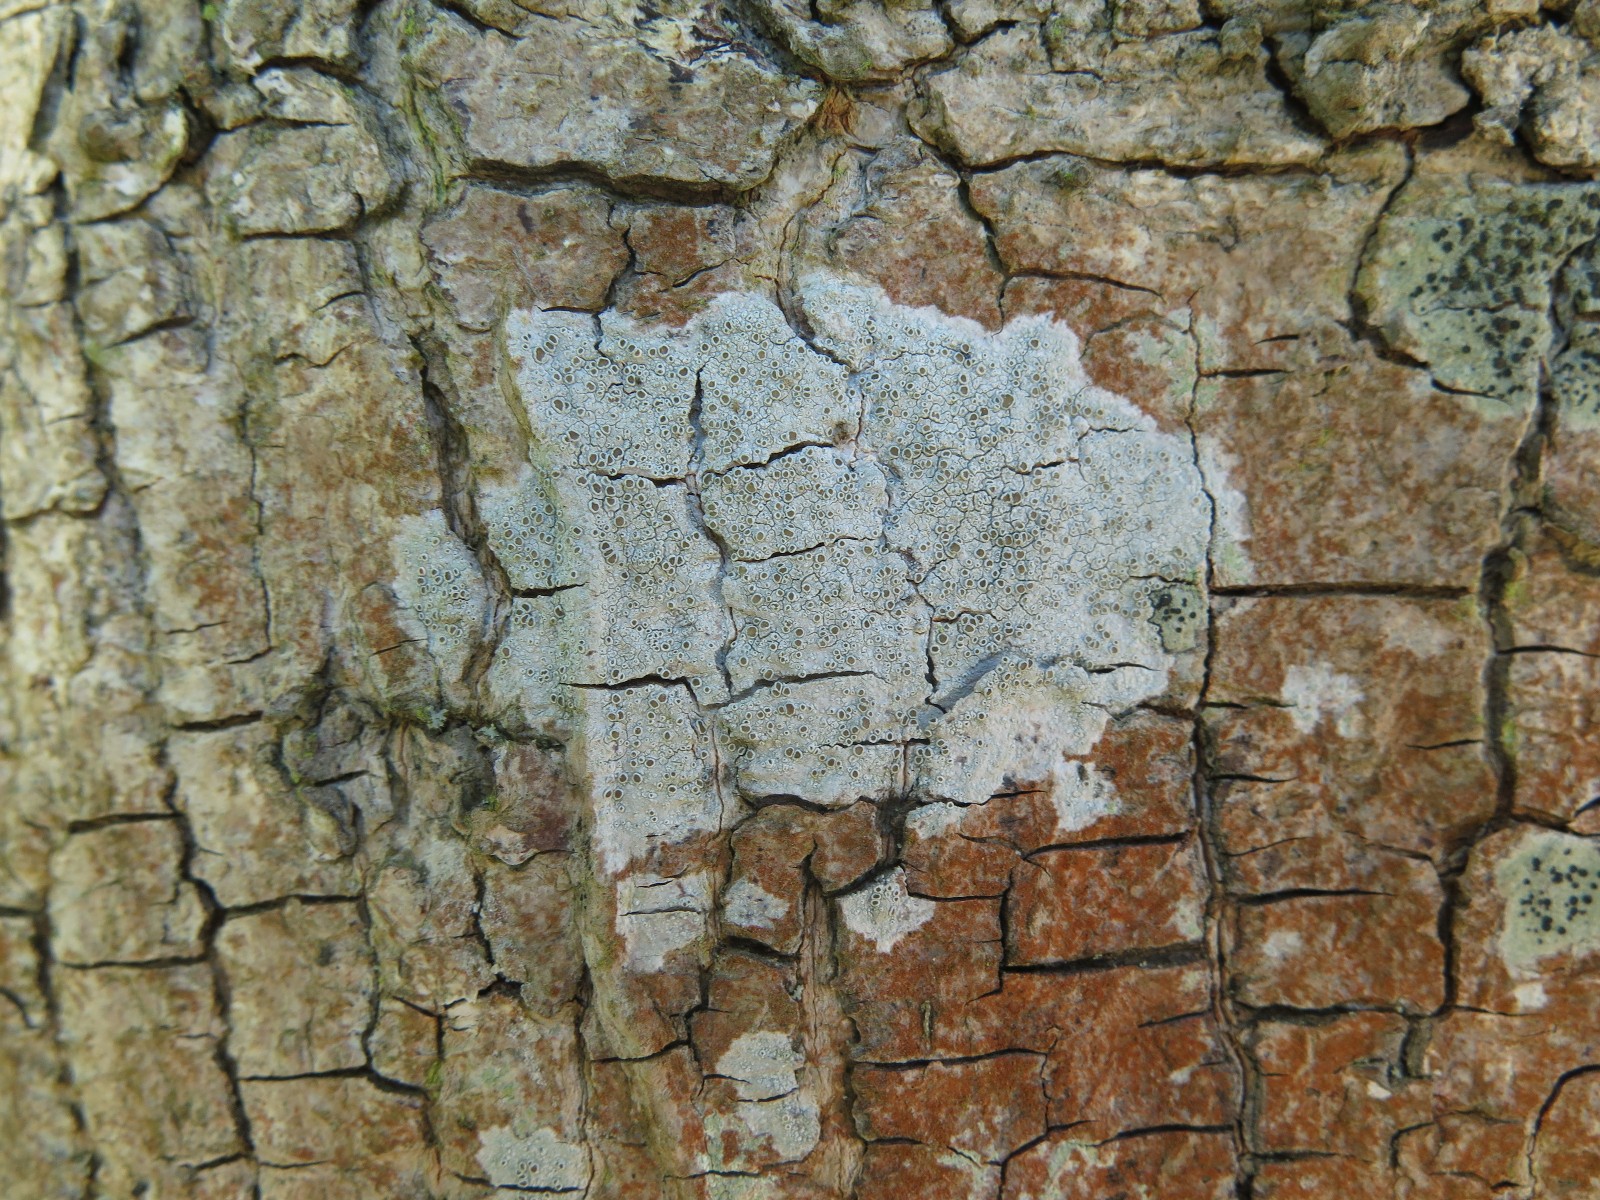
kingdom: Fungi
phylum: Ascomycota
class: Lecanoromycetes
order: Lecanorales
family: Lecanoraceae
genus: Lecanora
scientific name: Lecanora chlarotera
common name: brun kantskivelav
